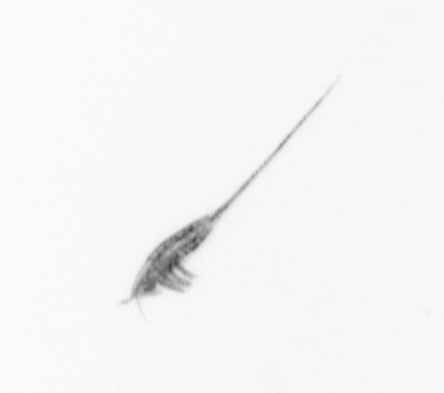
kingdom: Animalia
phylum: Arthropoda
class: Copepoda
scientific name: Copepoda
